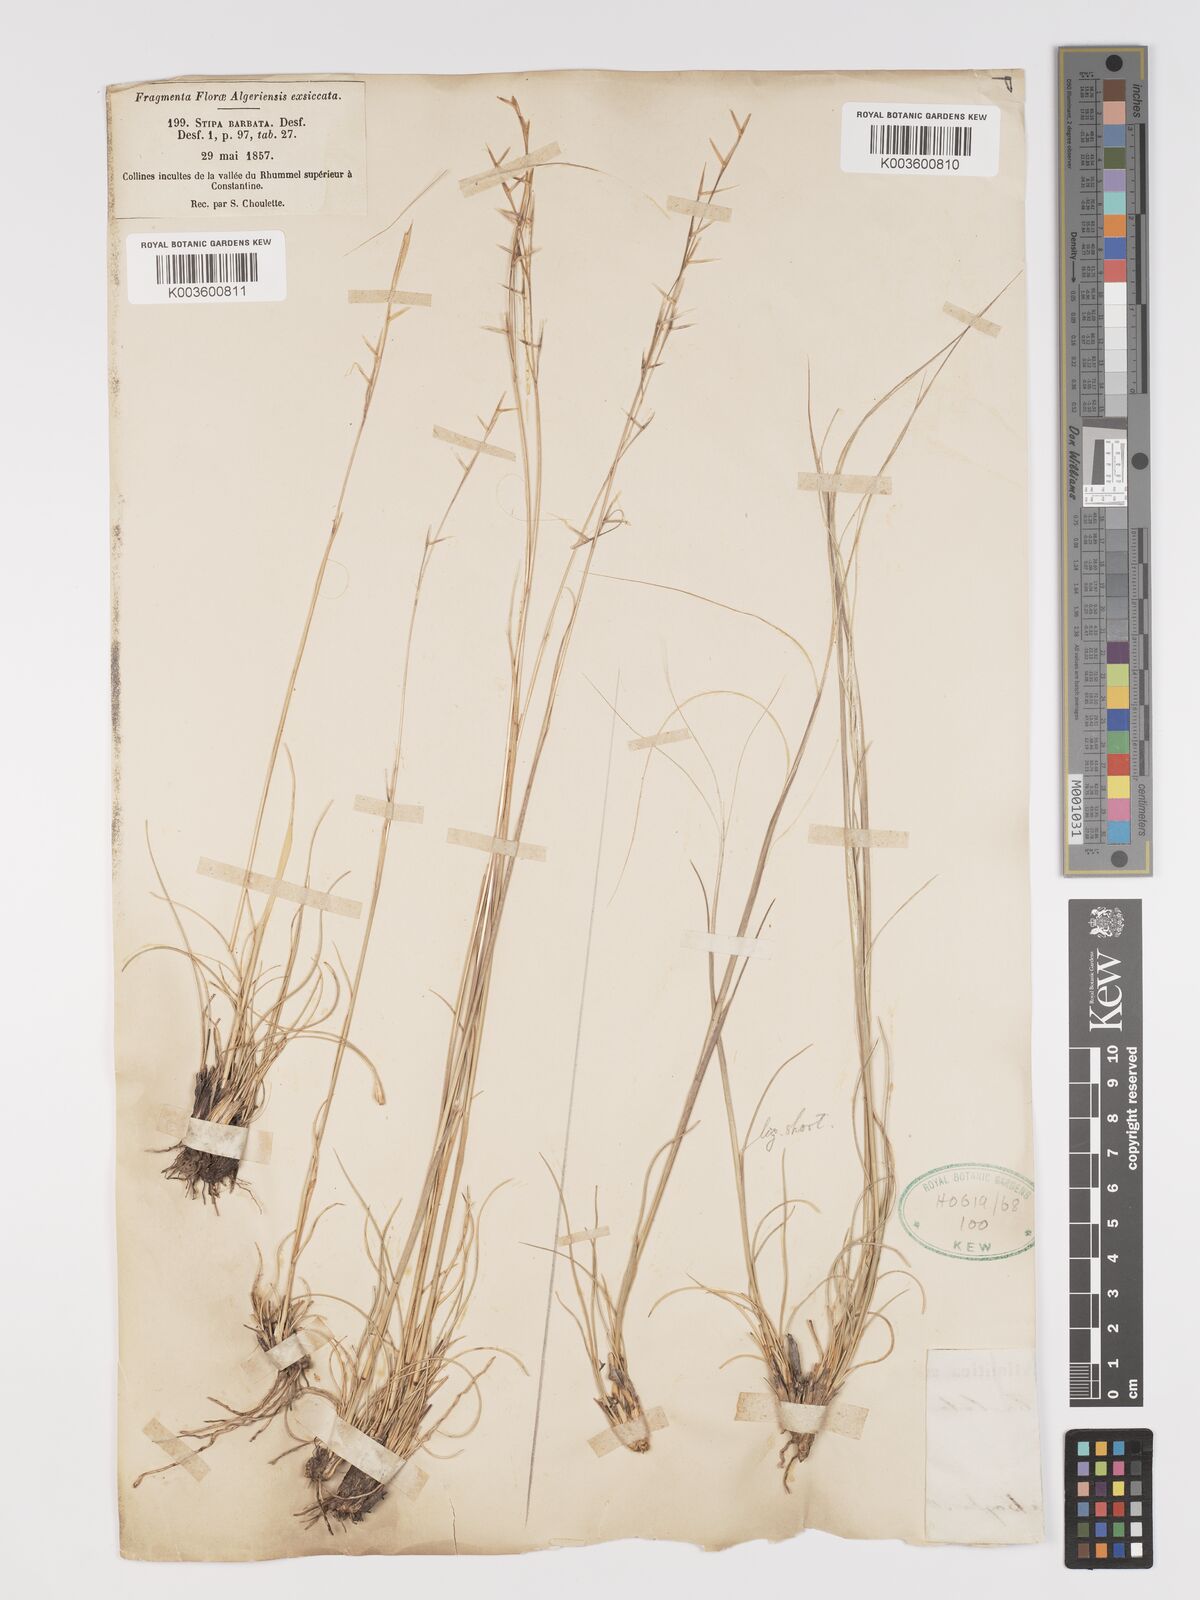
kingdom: Plantae
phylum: Tracheophyta
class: Liliopsida
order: Poales
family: Poaceae
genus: Stipa
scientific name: Stipa barbata
